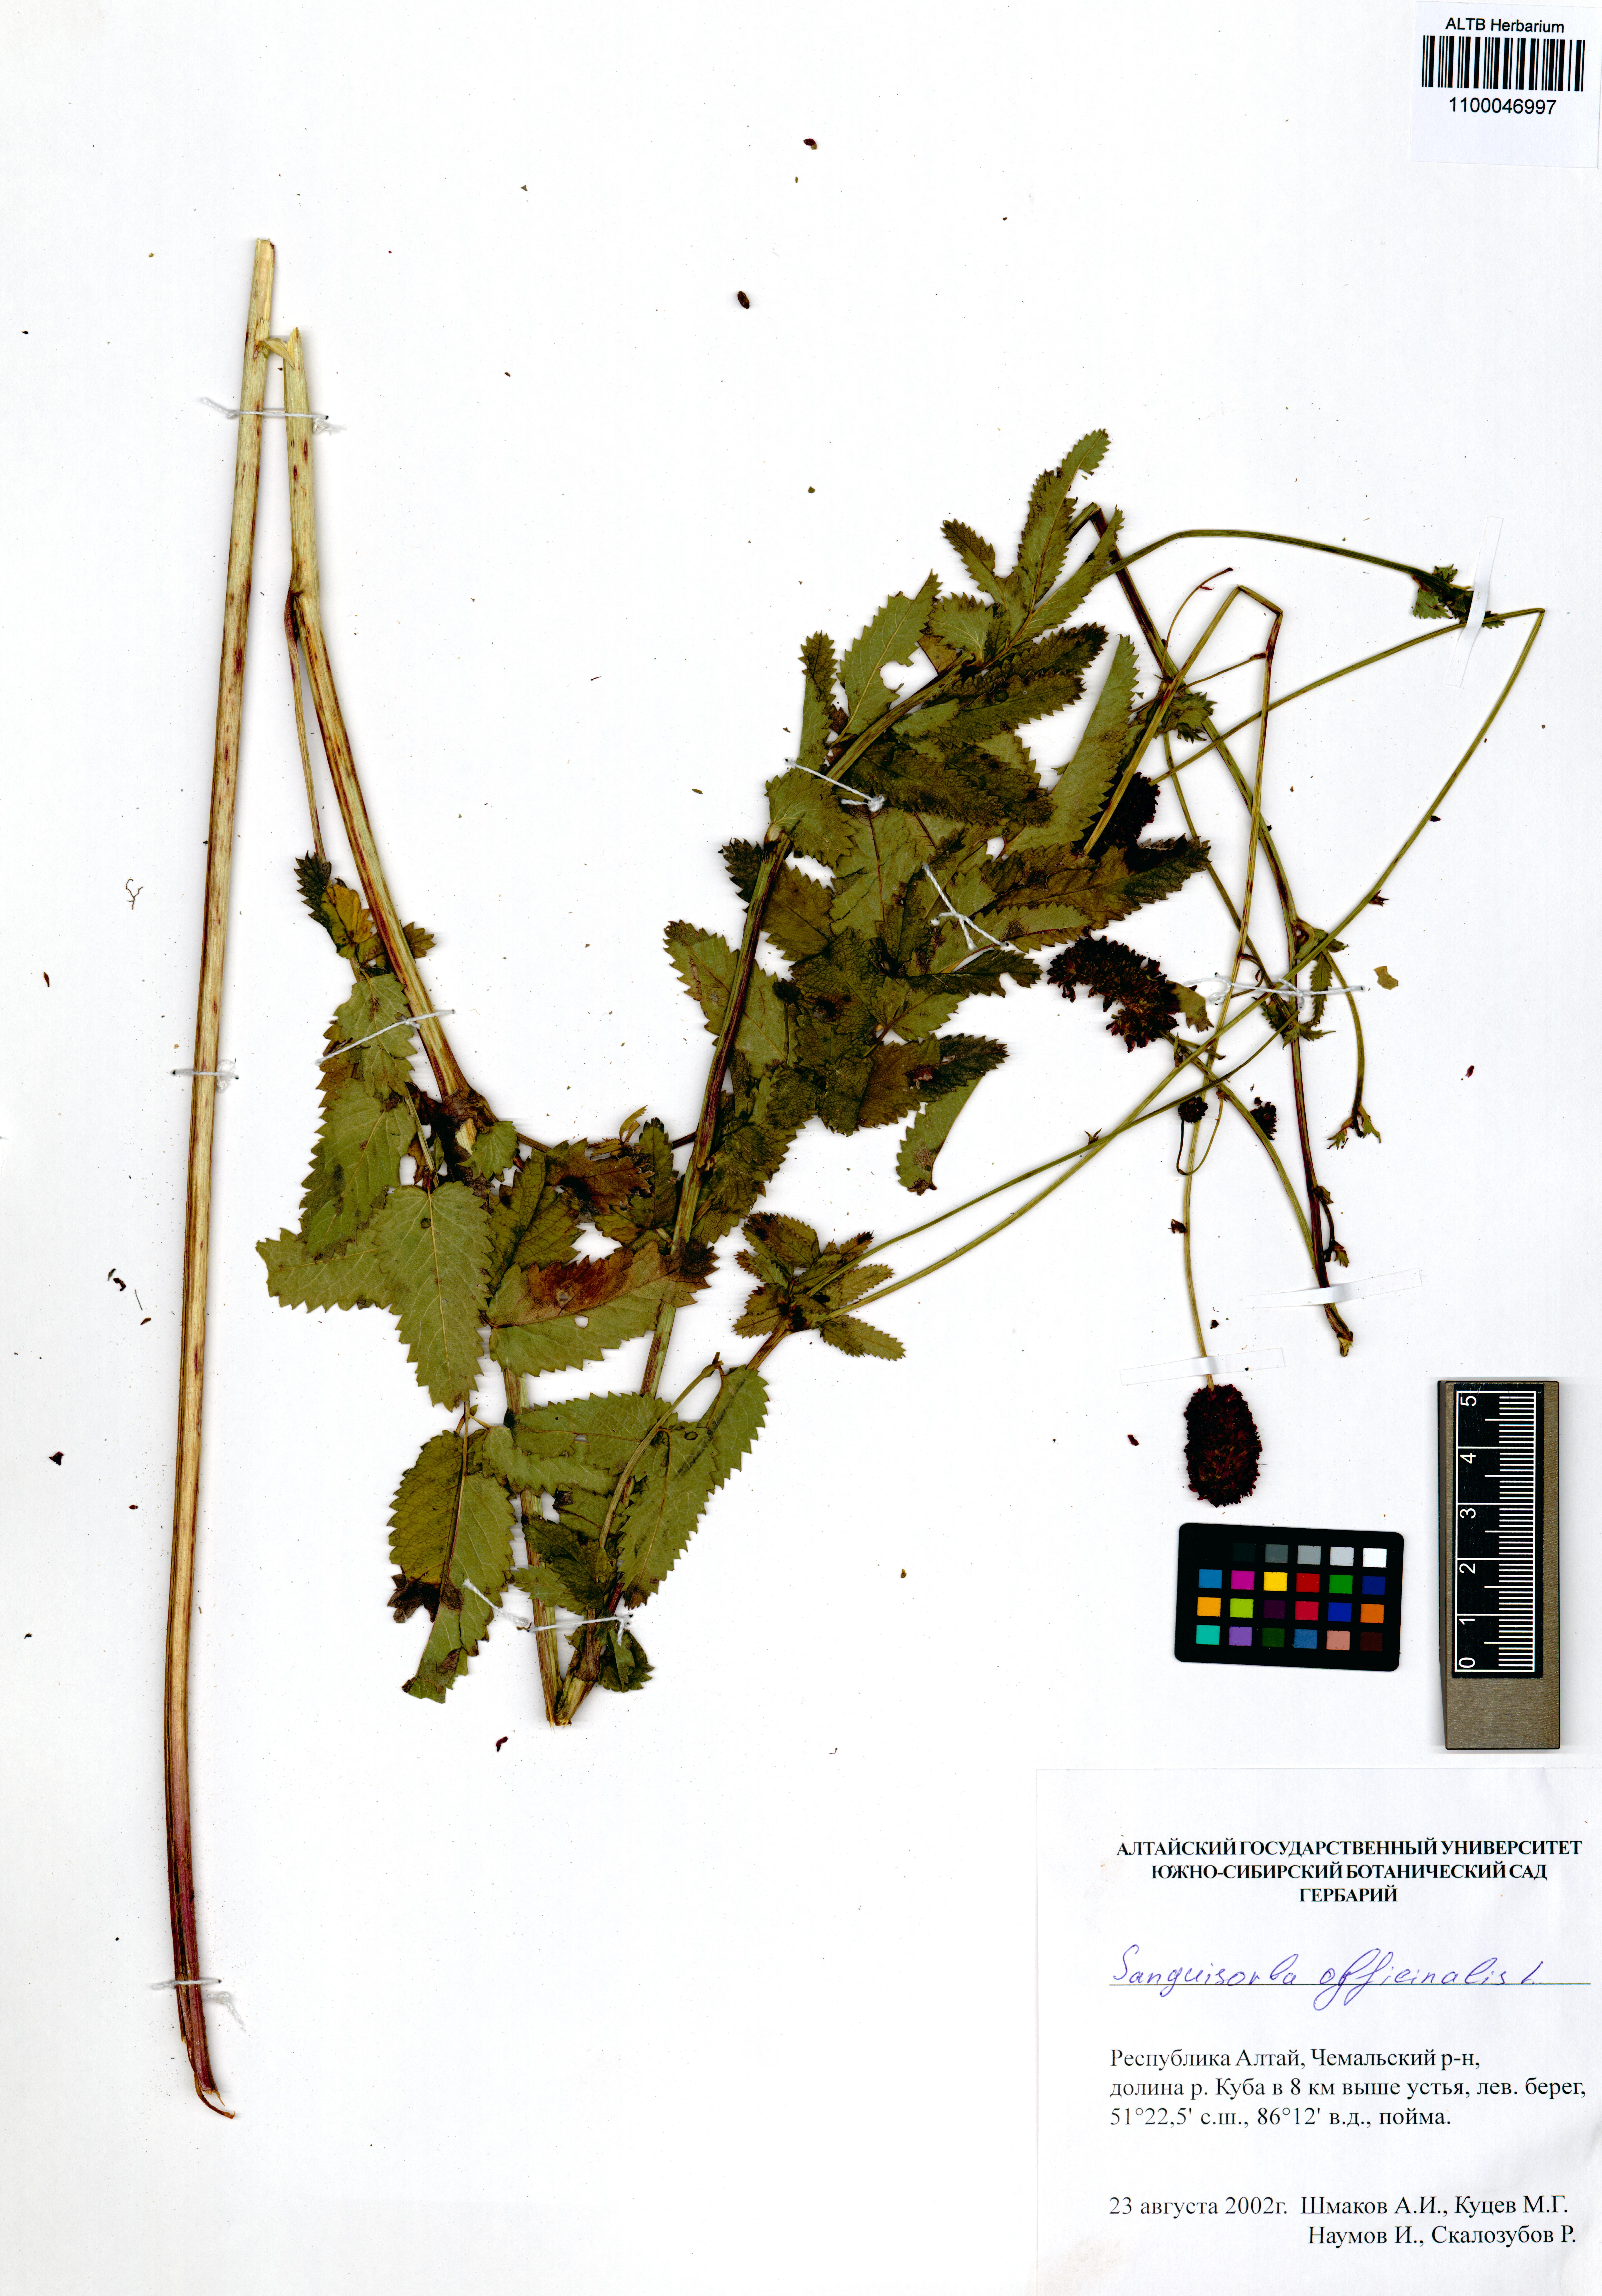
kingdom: Plantae
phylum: Tracheophyta
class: Magnoliopsida
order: Rosales
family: Rosaceae
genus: Sanguisorba
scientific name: Sanguisorba officinalis
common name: Great burnet
